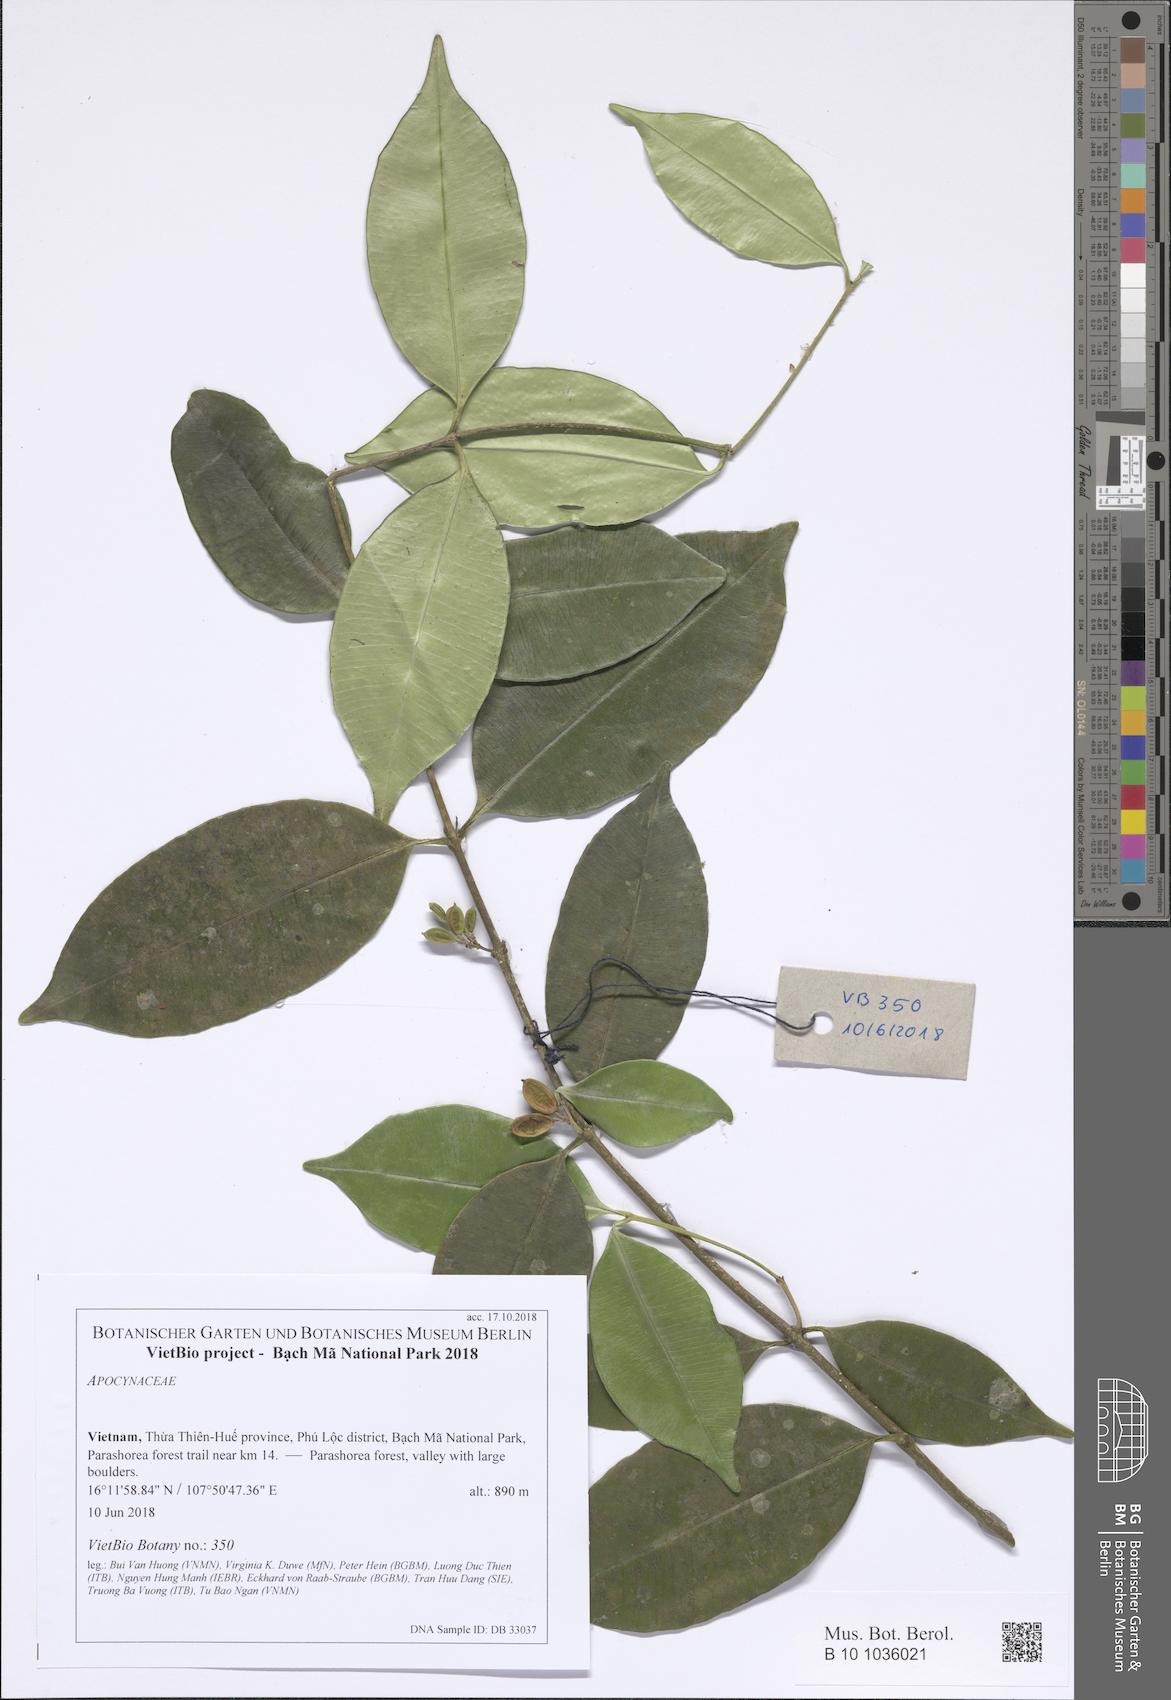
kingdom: Plantae
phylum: Tracheophyta
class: Magnoliopsida
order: Gentianales
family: Apocynaceae
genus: Alyxia
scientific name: Alyxia annamensis
